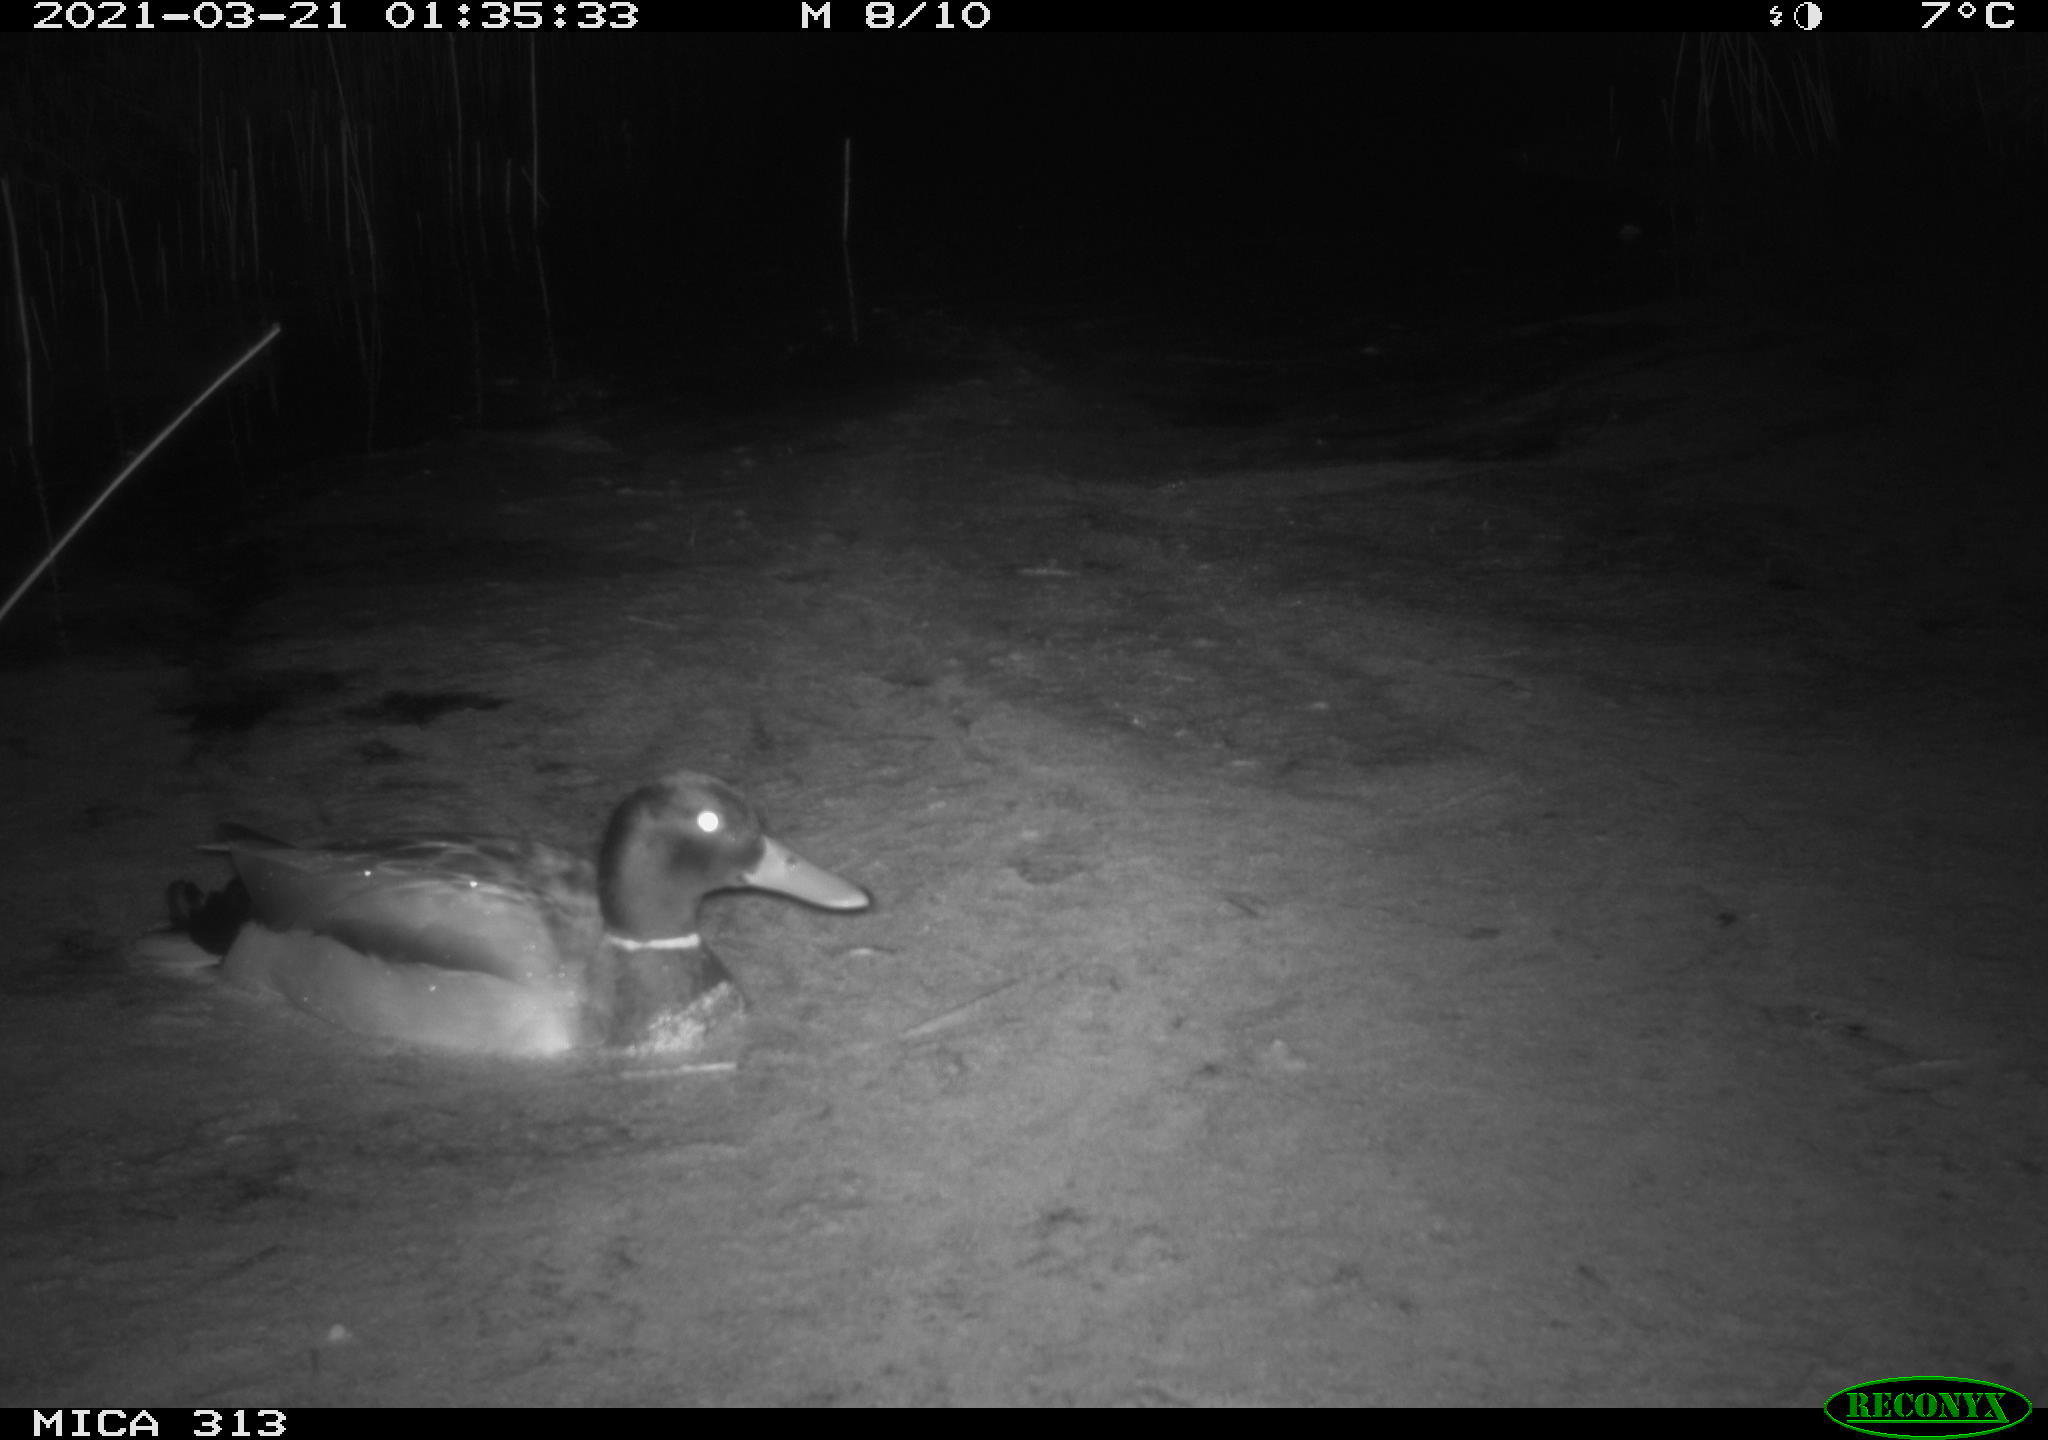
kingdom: Animalia
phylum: Chordata
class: Aves
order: Anseriformes
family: Anatidae
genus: Anas
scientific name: Anas platyrhynchos
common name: Mallard
